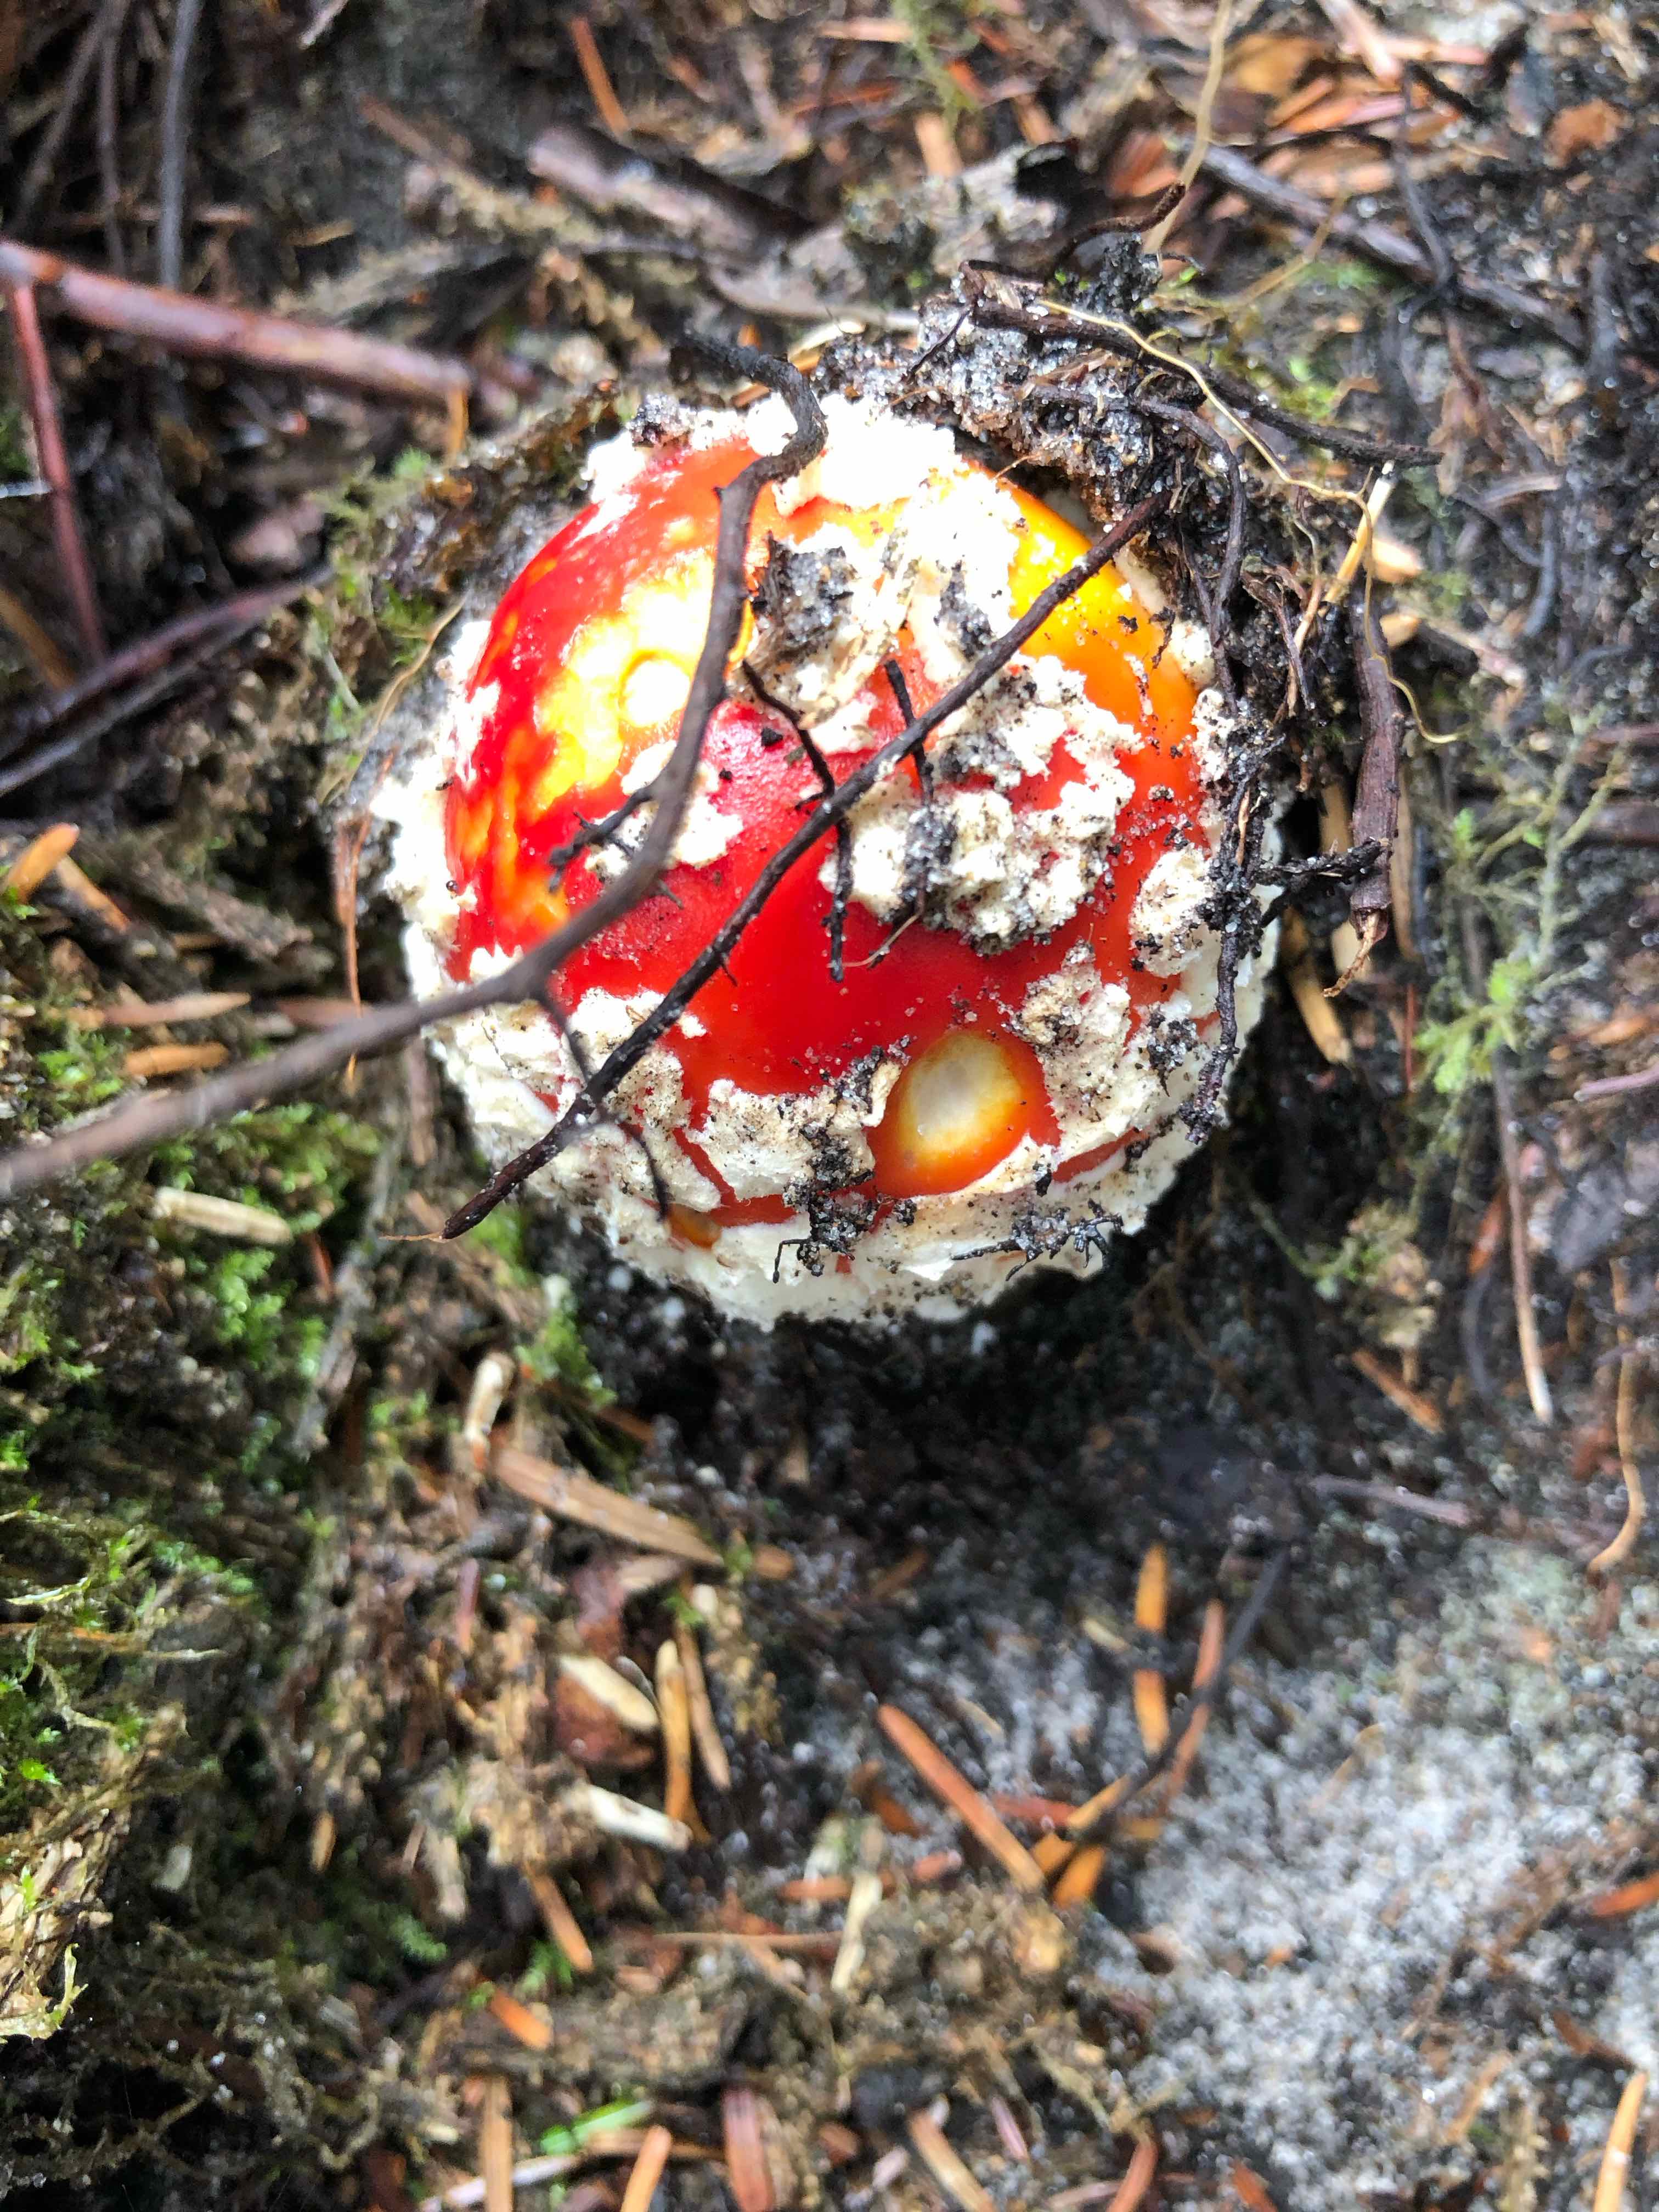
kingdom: Fungi
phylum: Basidiomycota
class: Agaricomycetes
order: Agaricales
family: Amanitaceae
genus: Amanita
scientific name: Amanita muscaria
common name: rød fluesvamp
